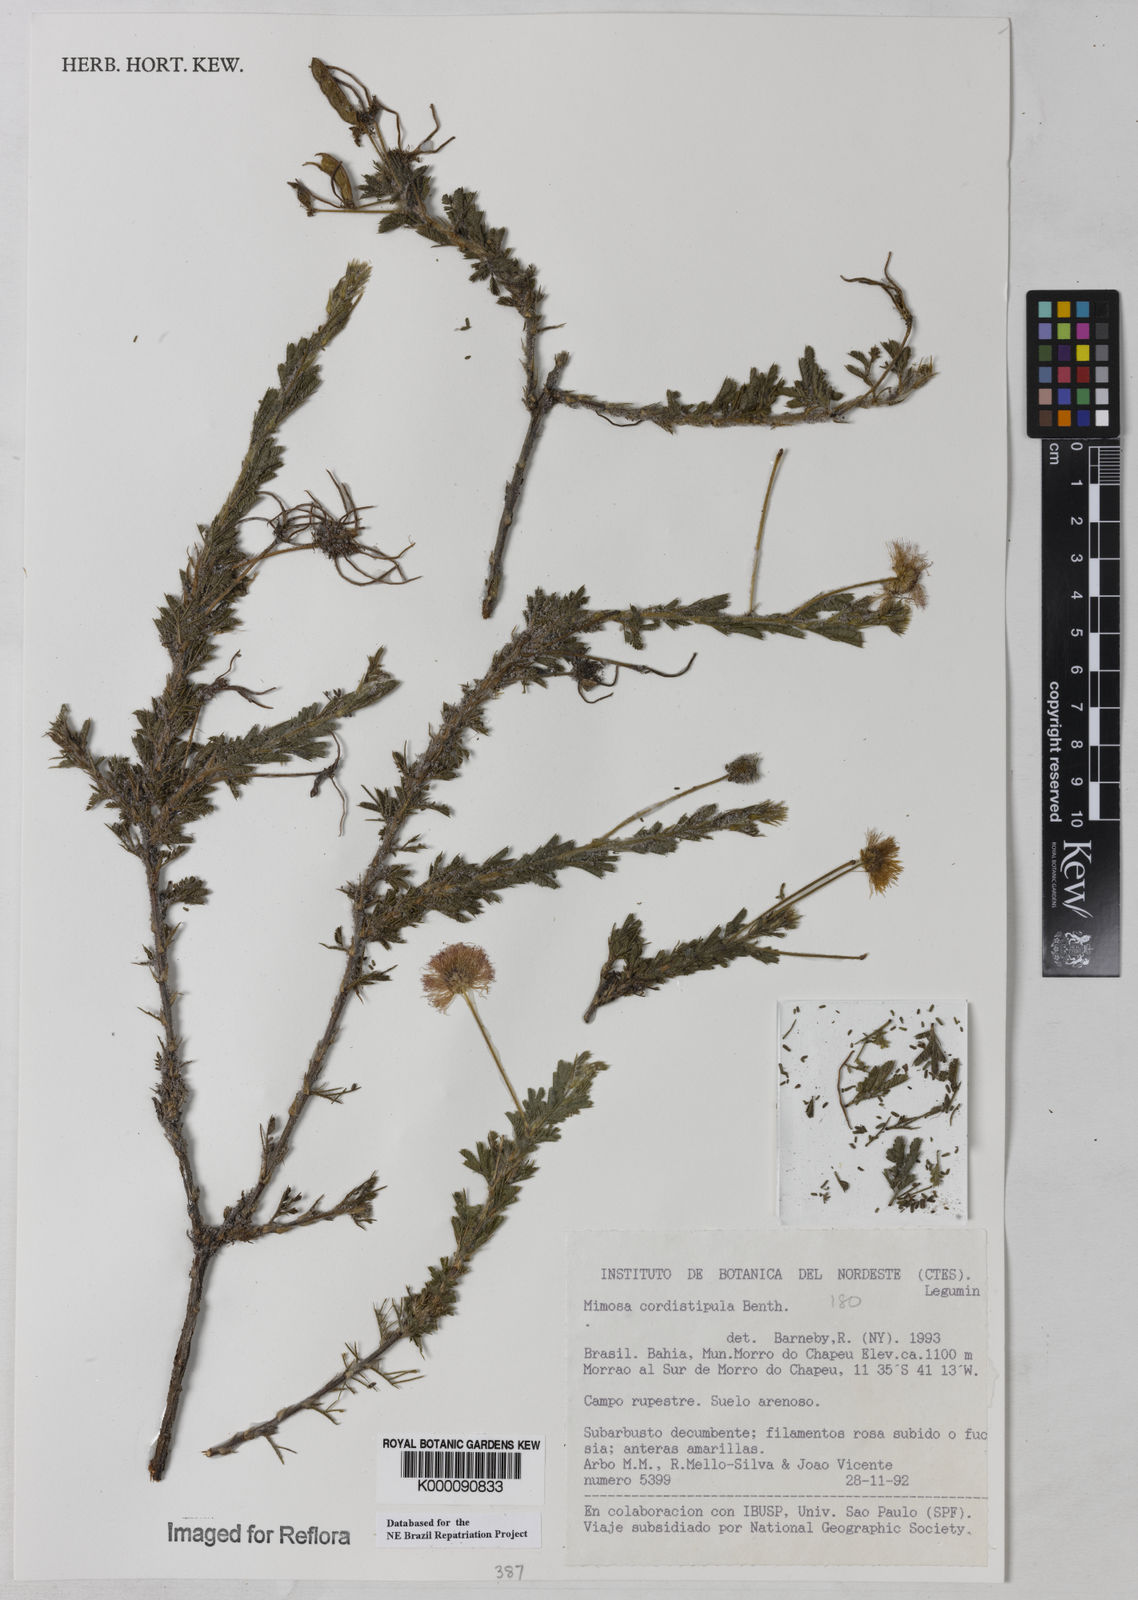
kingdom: Plantae
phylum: Tracheophyta
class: Magnoliopsida
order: Fabales
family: Fabaceae
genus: Mimosa
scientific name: Mimosa cordistipula
